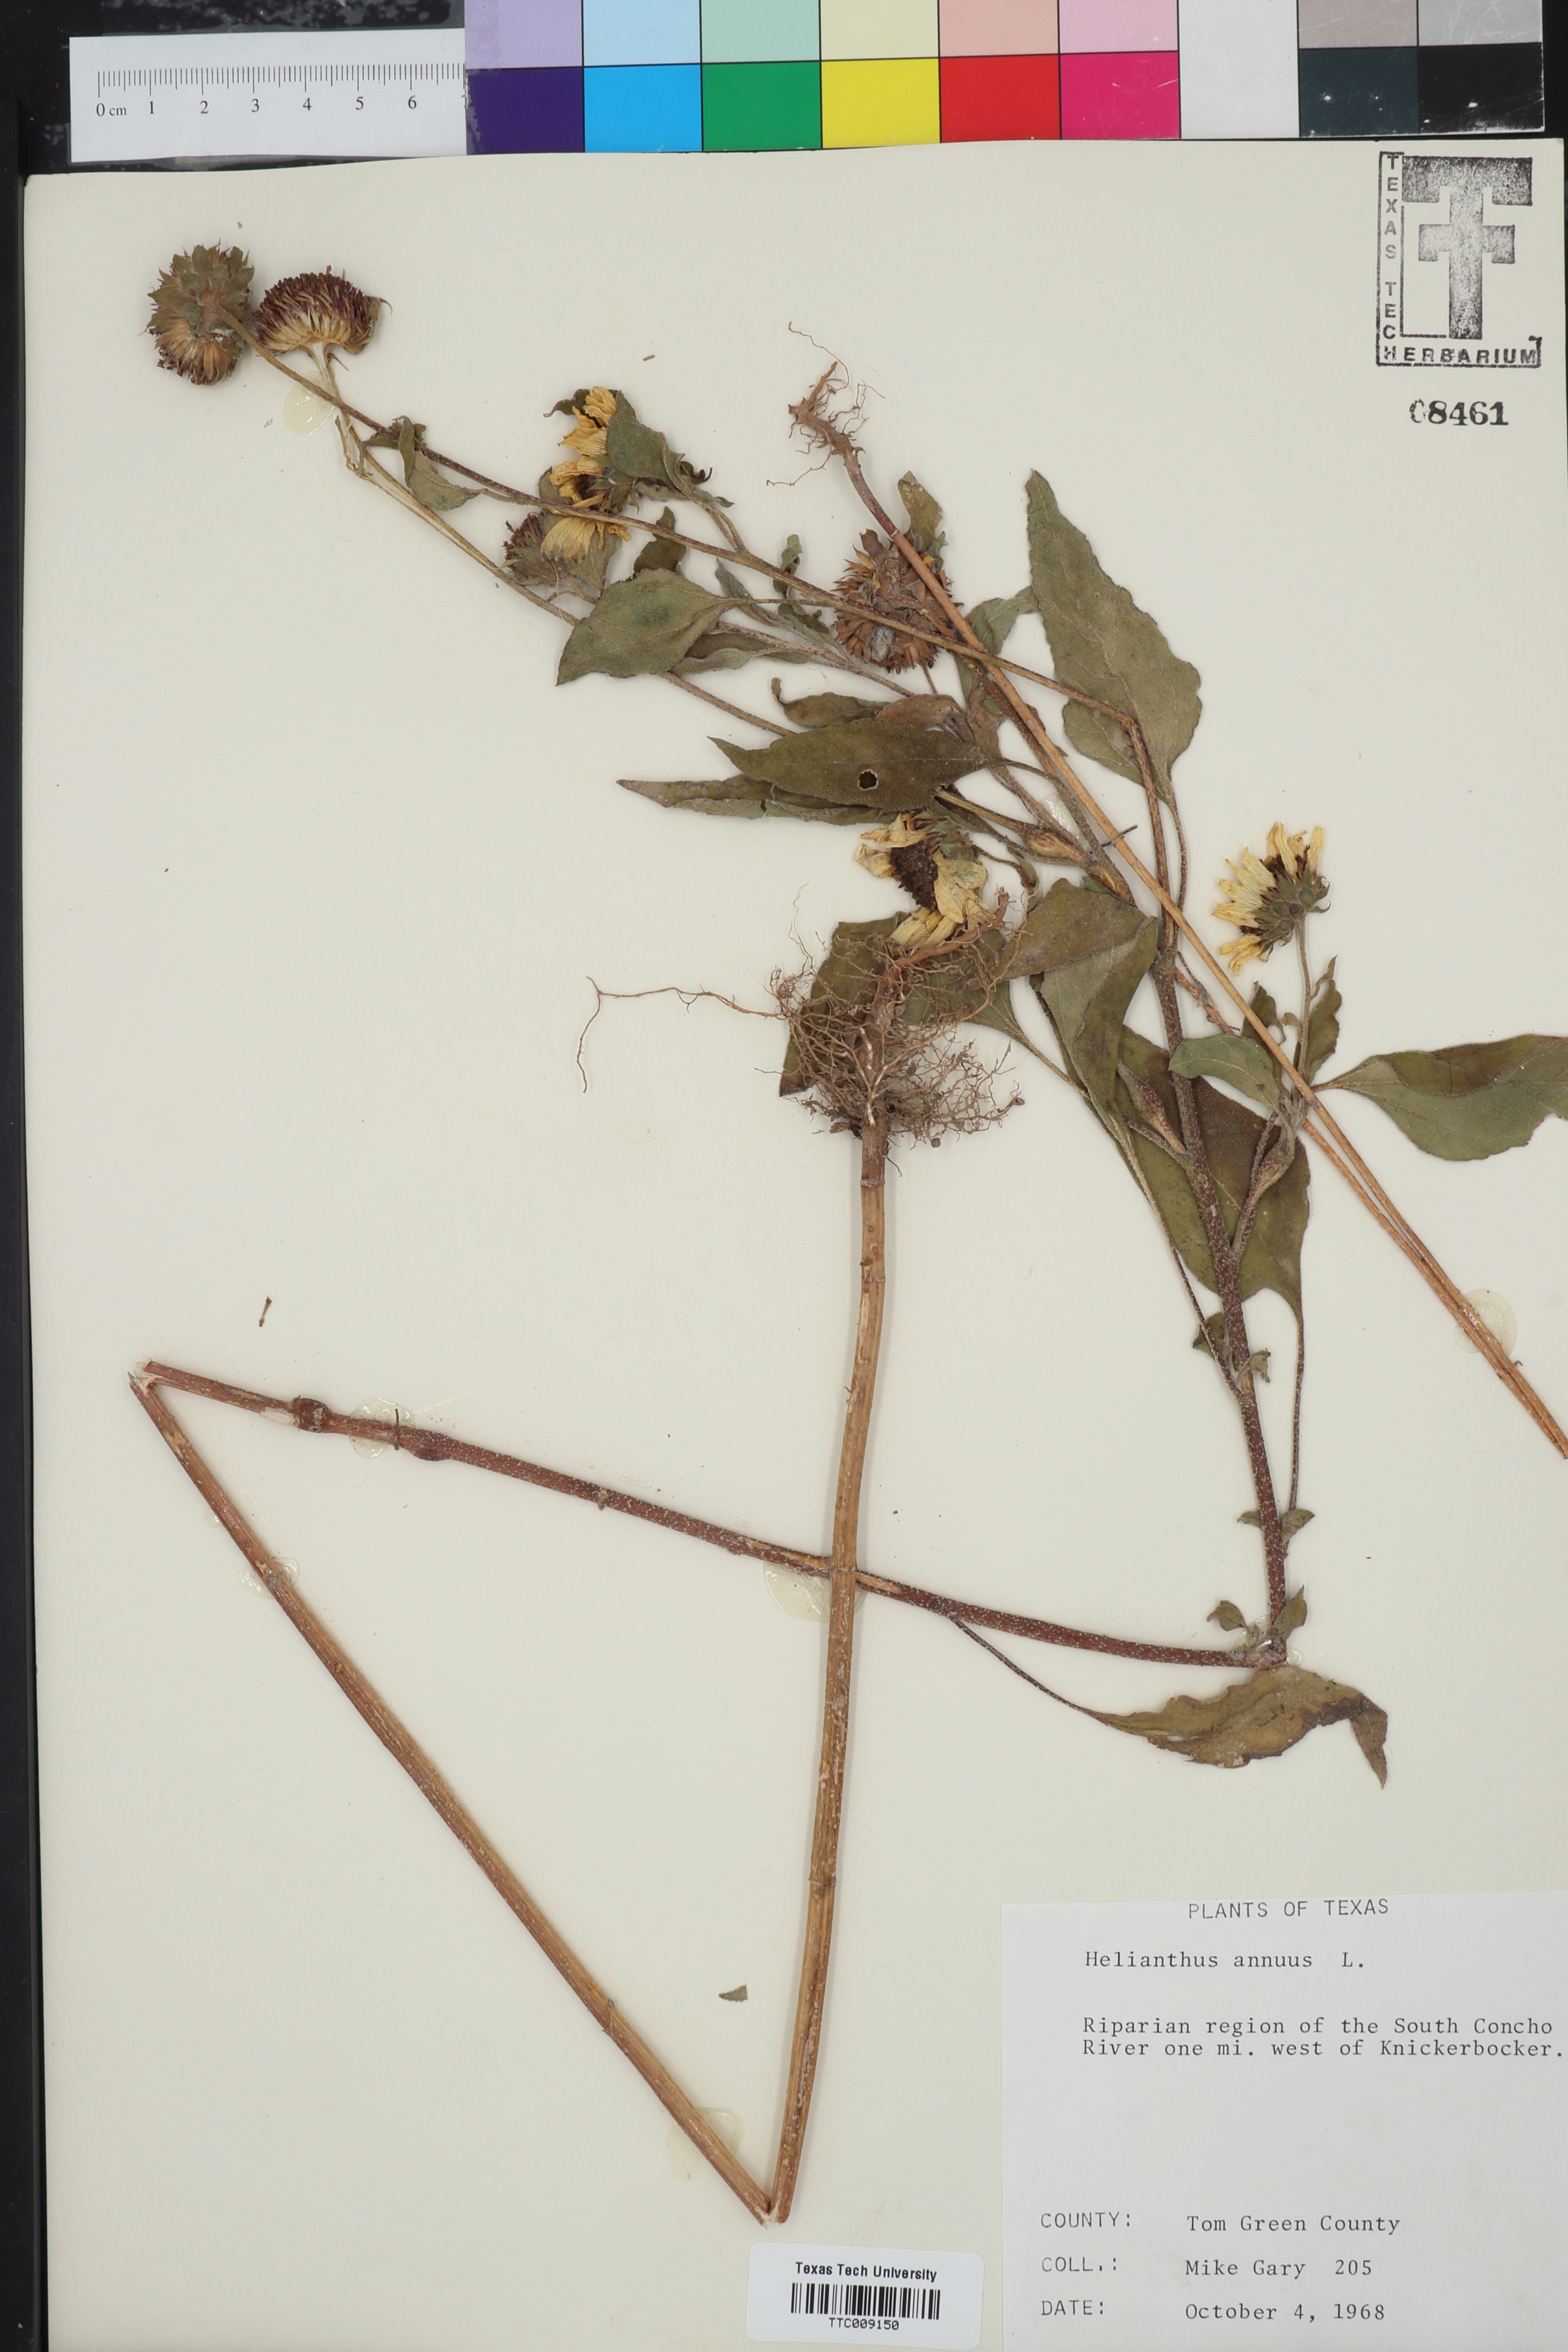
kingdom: Plantae
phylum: Tracheophyta
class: Magnoliopsida
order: Asterales
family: Asteraceae
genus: Helianthus
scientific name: Helianthus annuus
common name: Sunflower
